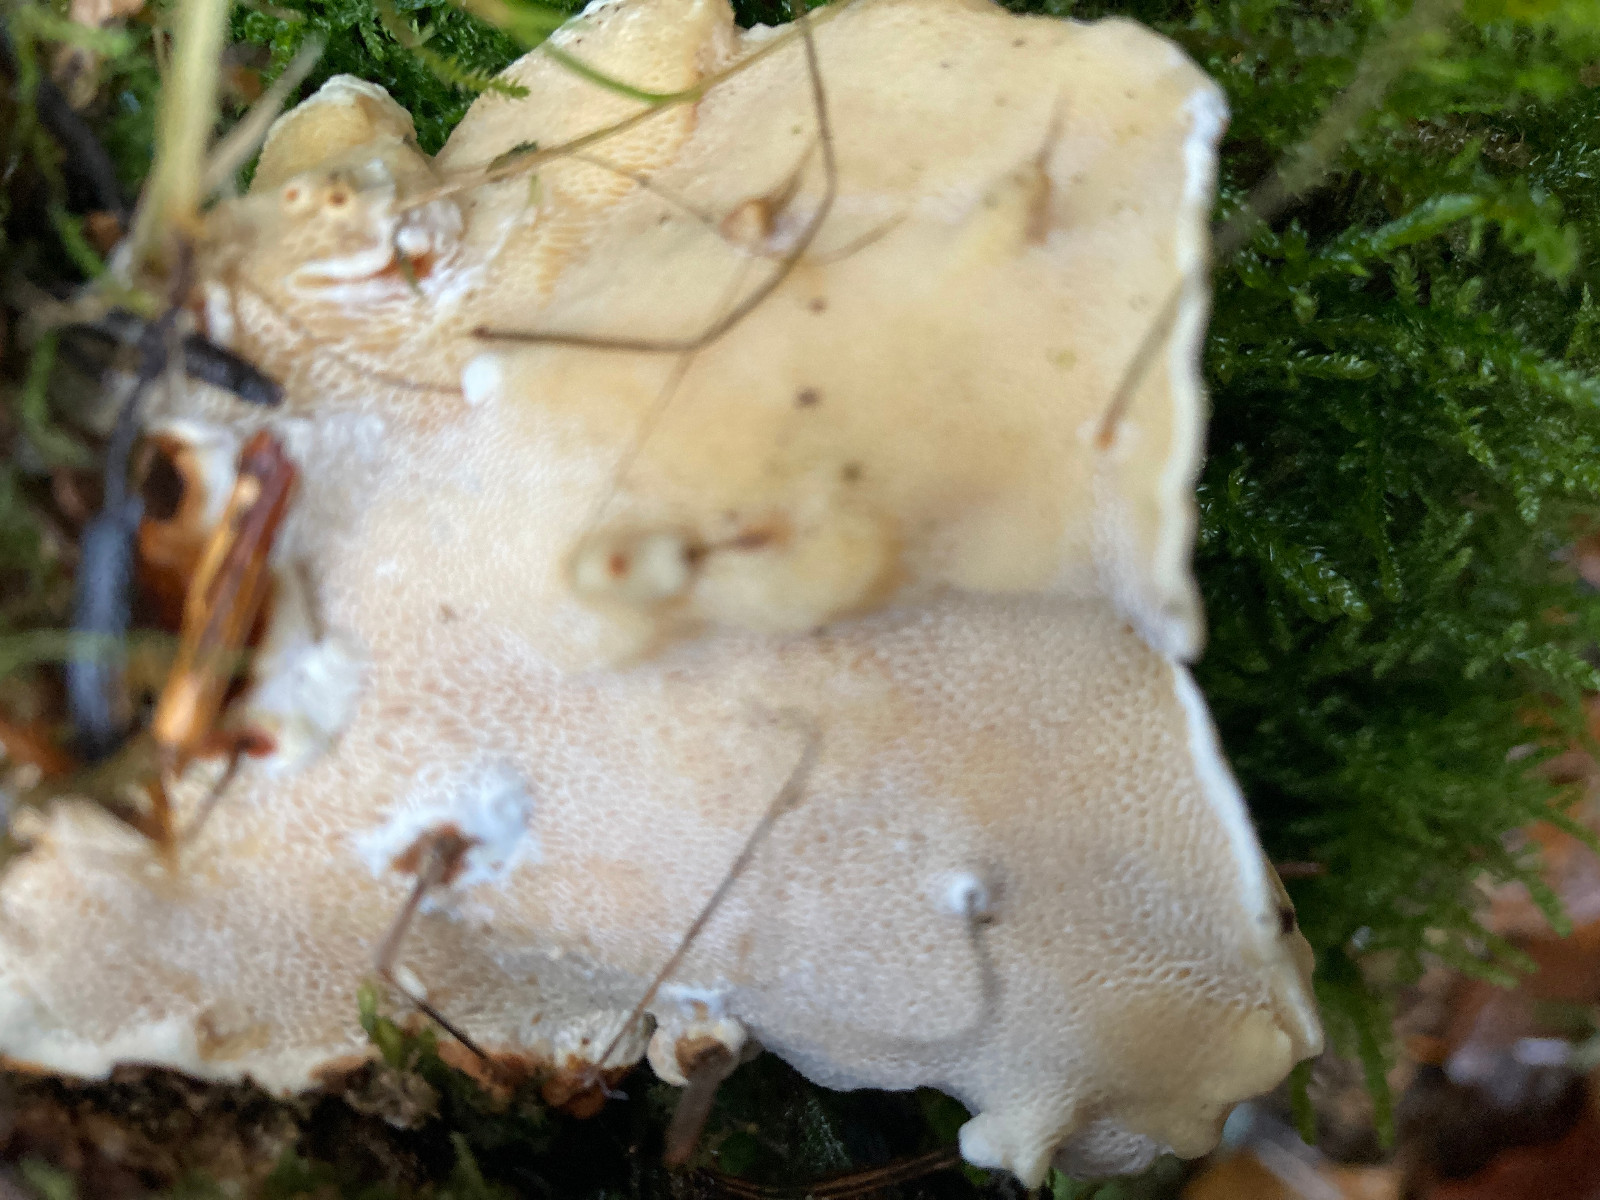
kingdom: Fungi
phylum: Basidiomycota
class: Agaricomycetes
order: Russulales
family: Bondarzewiaceae
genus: Heterobasidion
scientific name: Heterobasidion annosum
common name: almindelig rodfordærver
